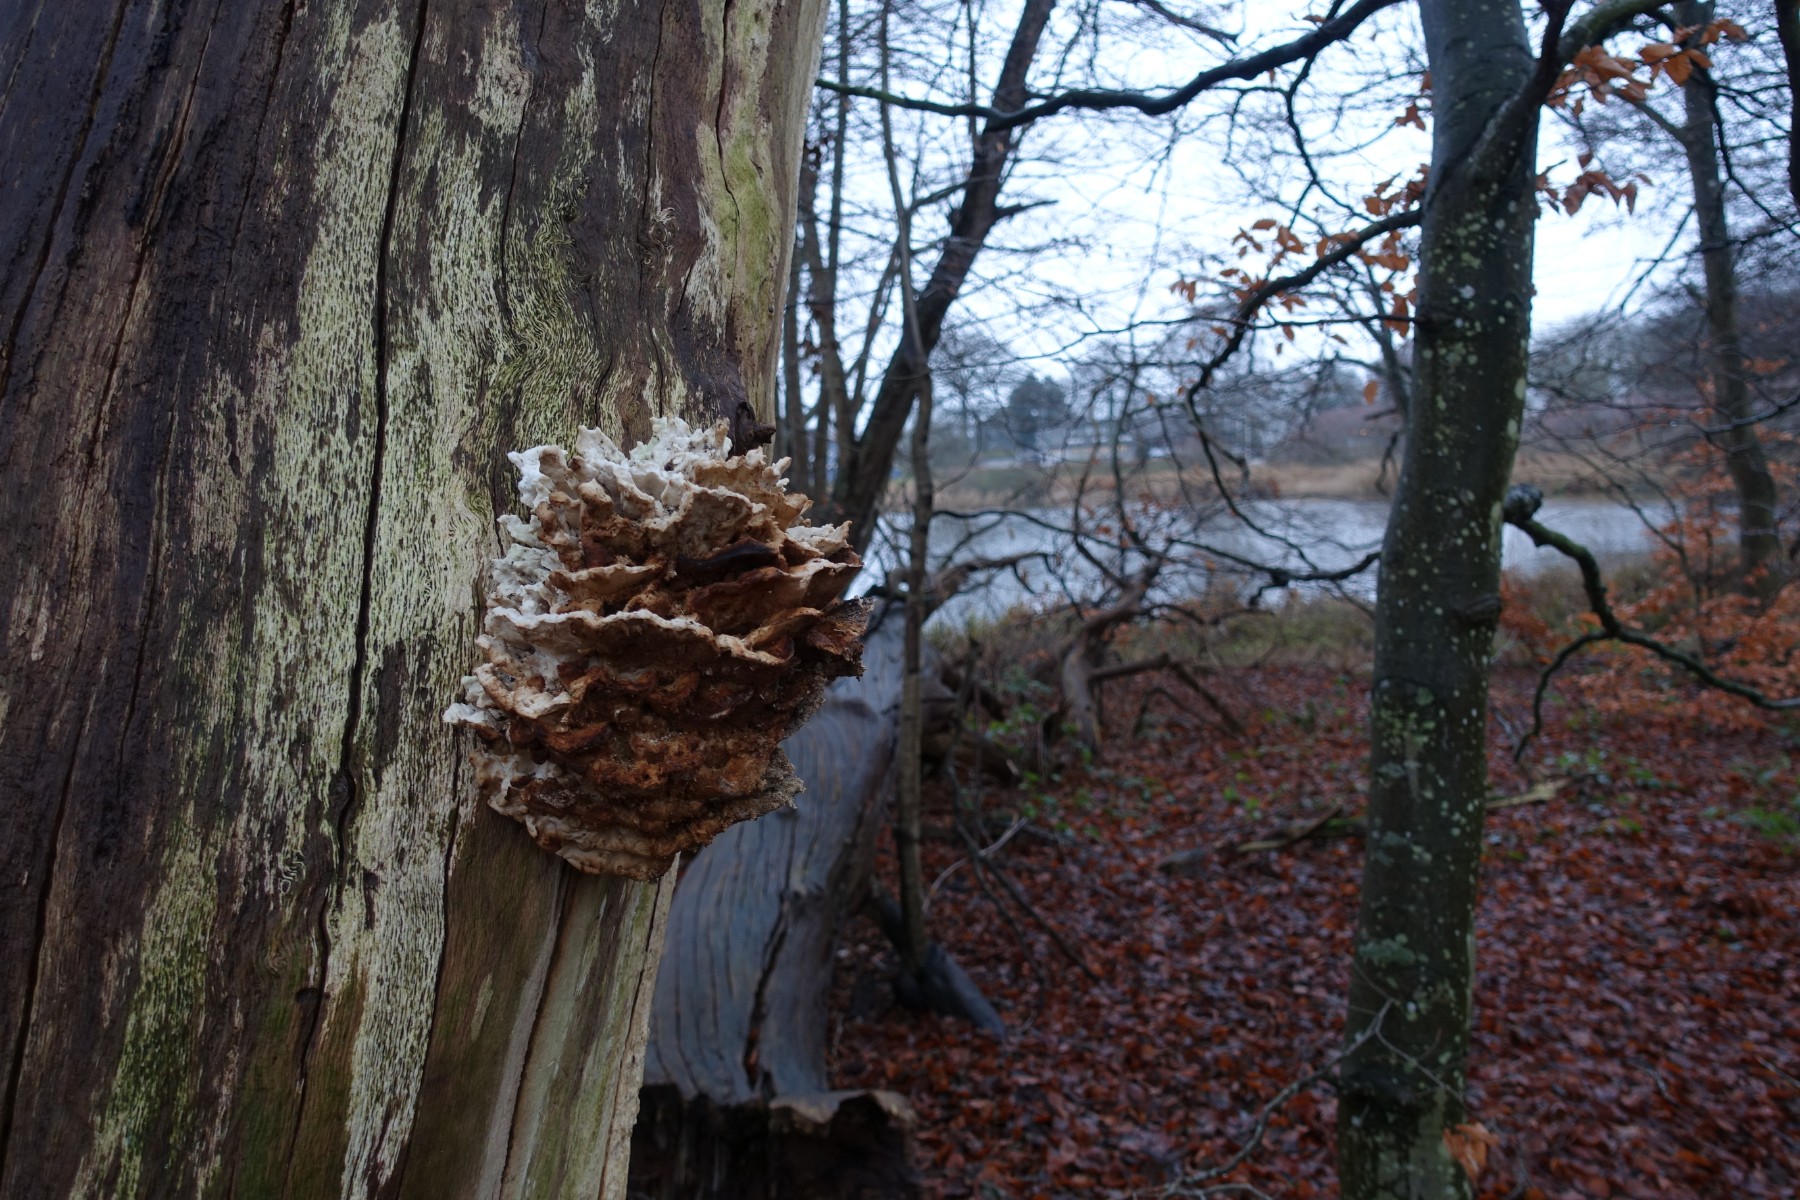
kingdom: Fungi
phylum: Basidiomycota
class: Agaricomycetes
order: Polyporales
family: Laetiporaceae
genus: Laetiporus
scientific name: Laetiporus sulphureus
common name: svovlporesvamp
